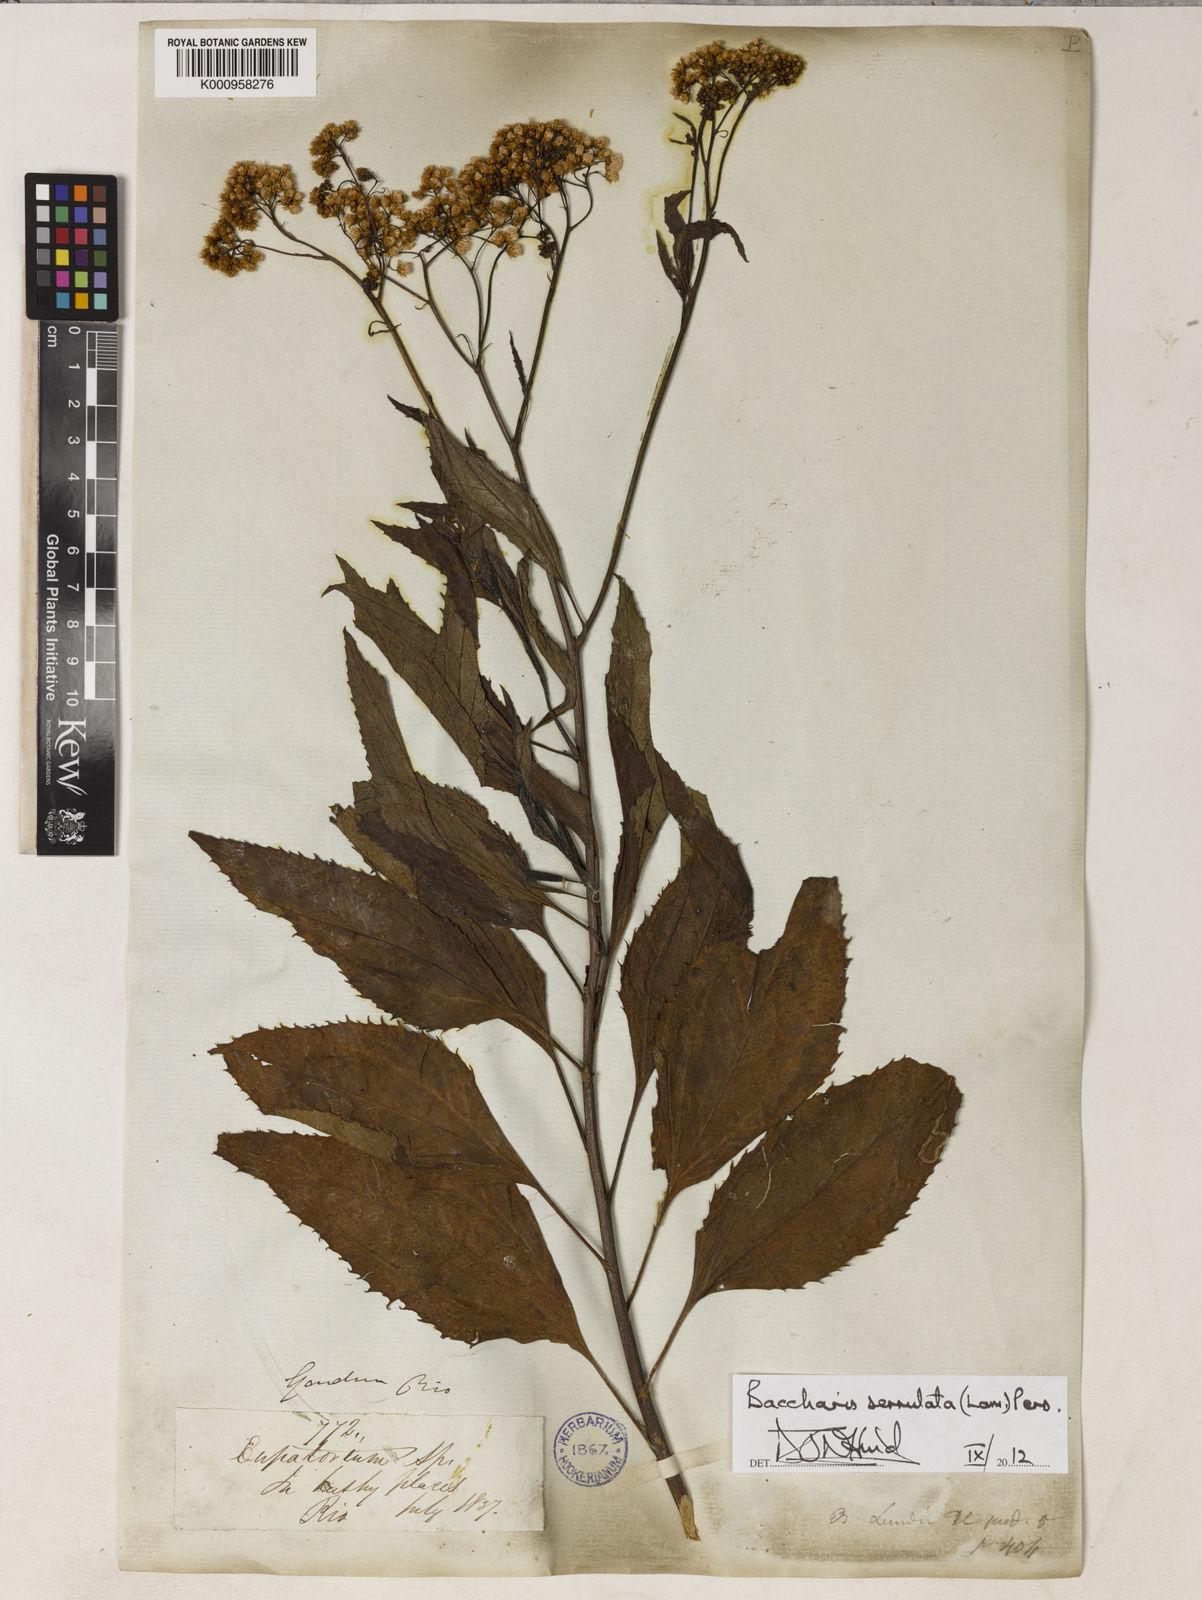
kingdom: Plantae
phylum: Tracheophyta
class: Magnoliopsida
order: Asterales
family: Asteraceae
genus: Baccharis
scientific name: Baccharis serrulata
